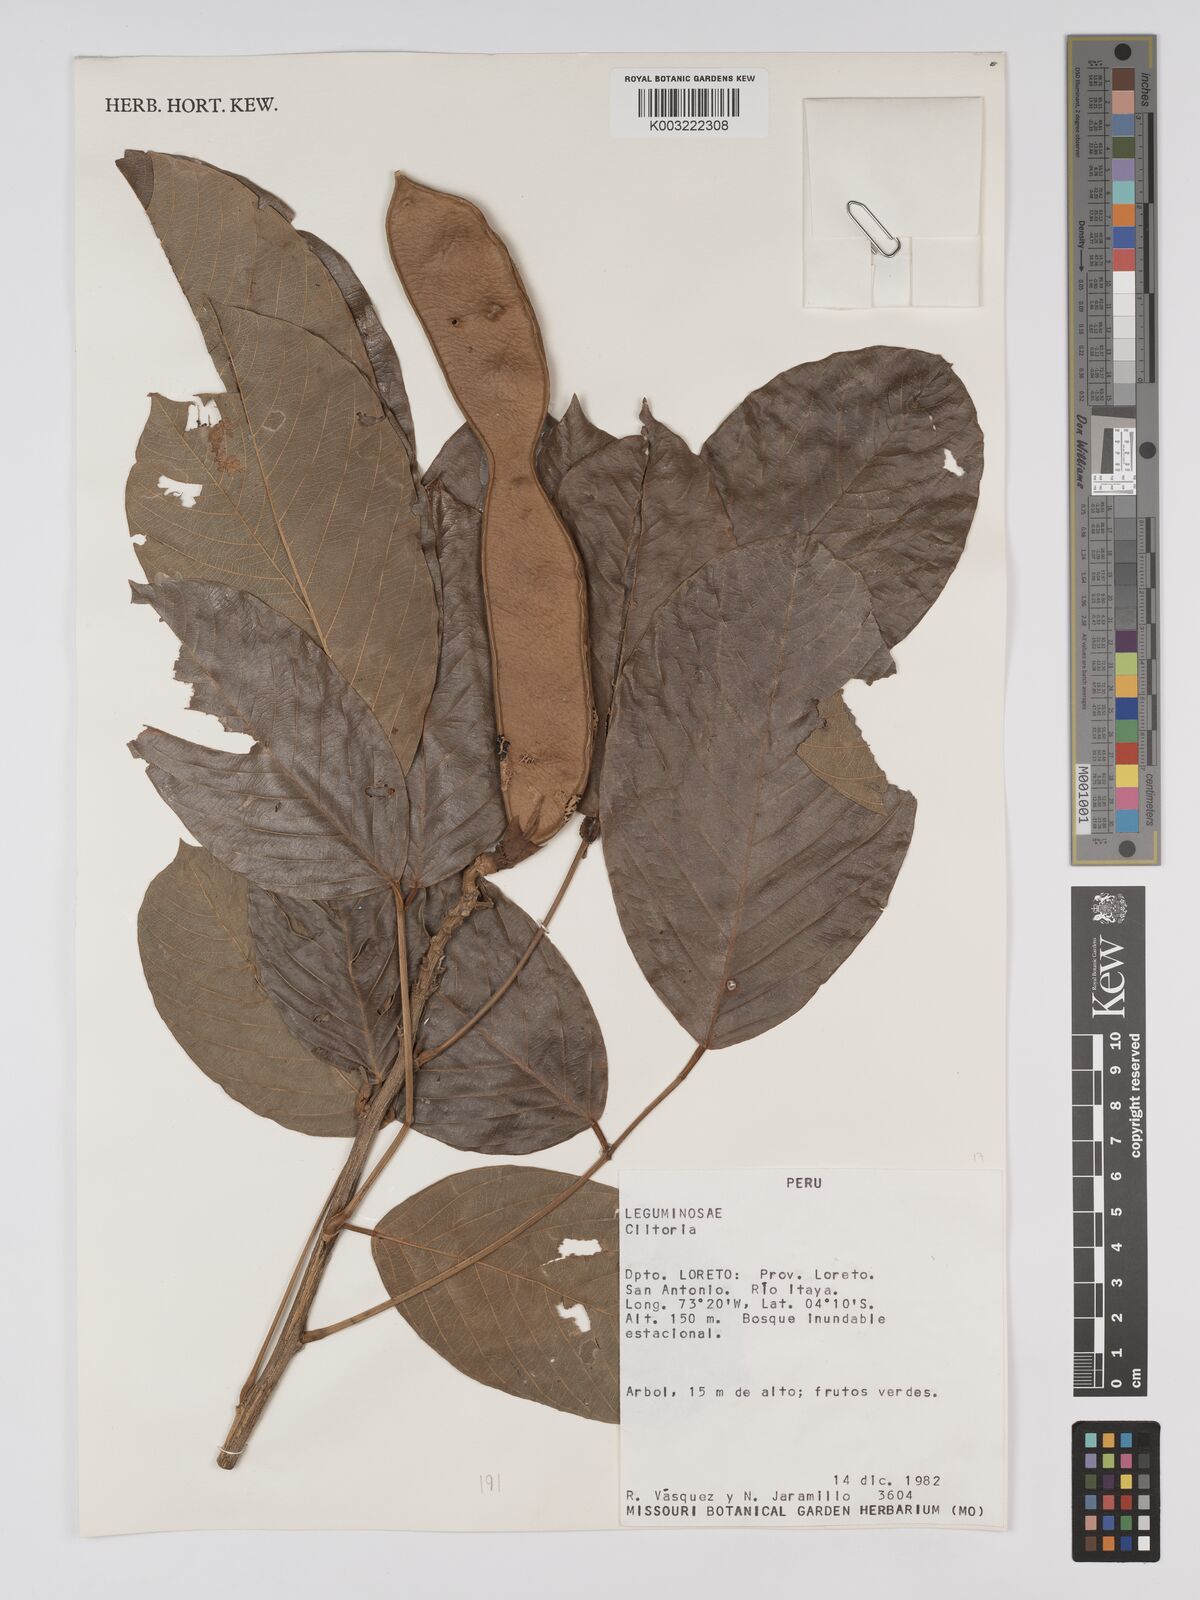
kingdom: Plantae
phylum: Tracheophyta
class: Magnoliopsida
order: Fabales
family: Fabaceae
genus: Clitoria
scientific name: Clitoria
